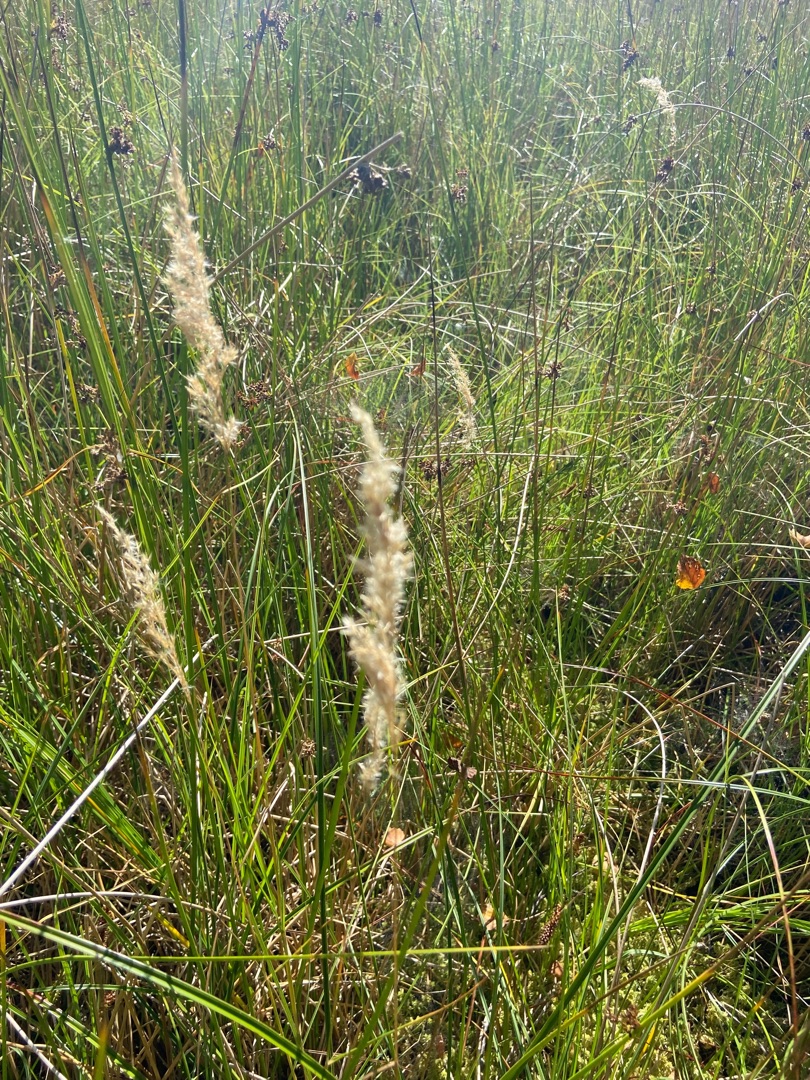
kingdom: Plantae
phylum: Tracheophyta
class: Liliopsida
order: Poales
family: Poaceae
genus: Calamagrostis
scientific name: Calamagrostis canescens
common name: Eng-rørhvene
